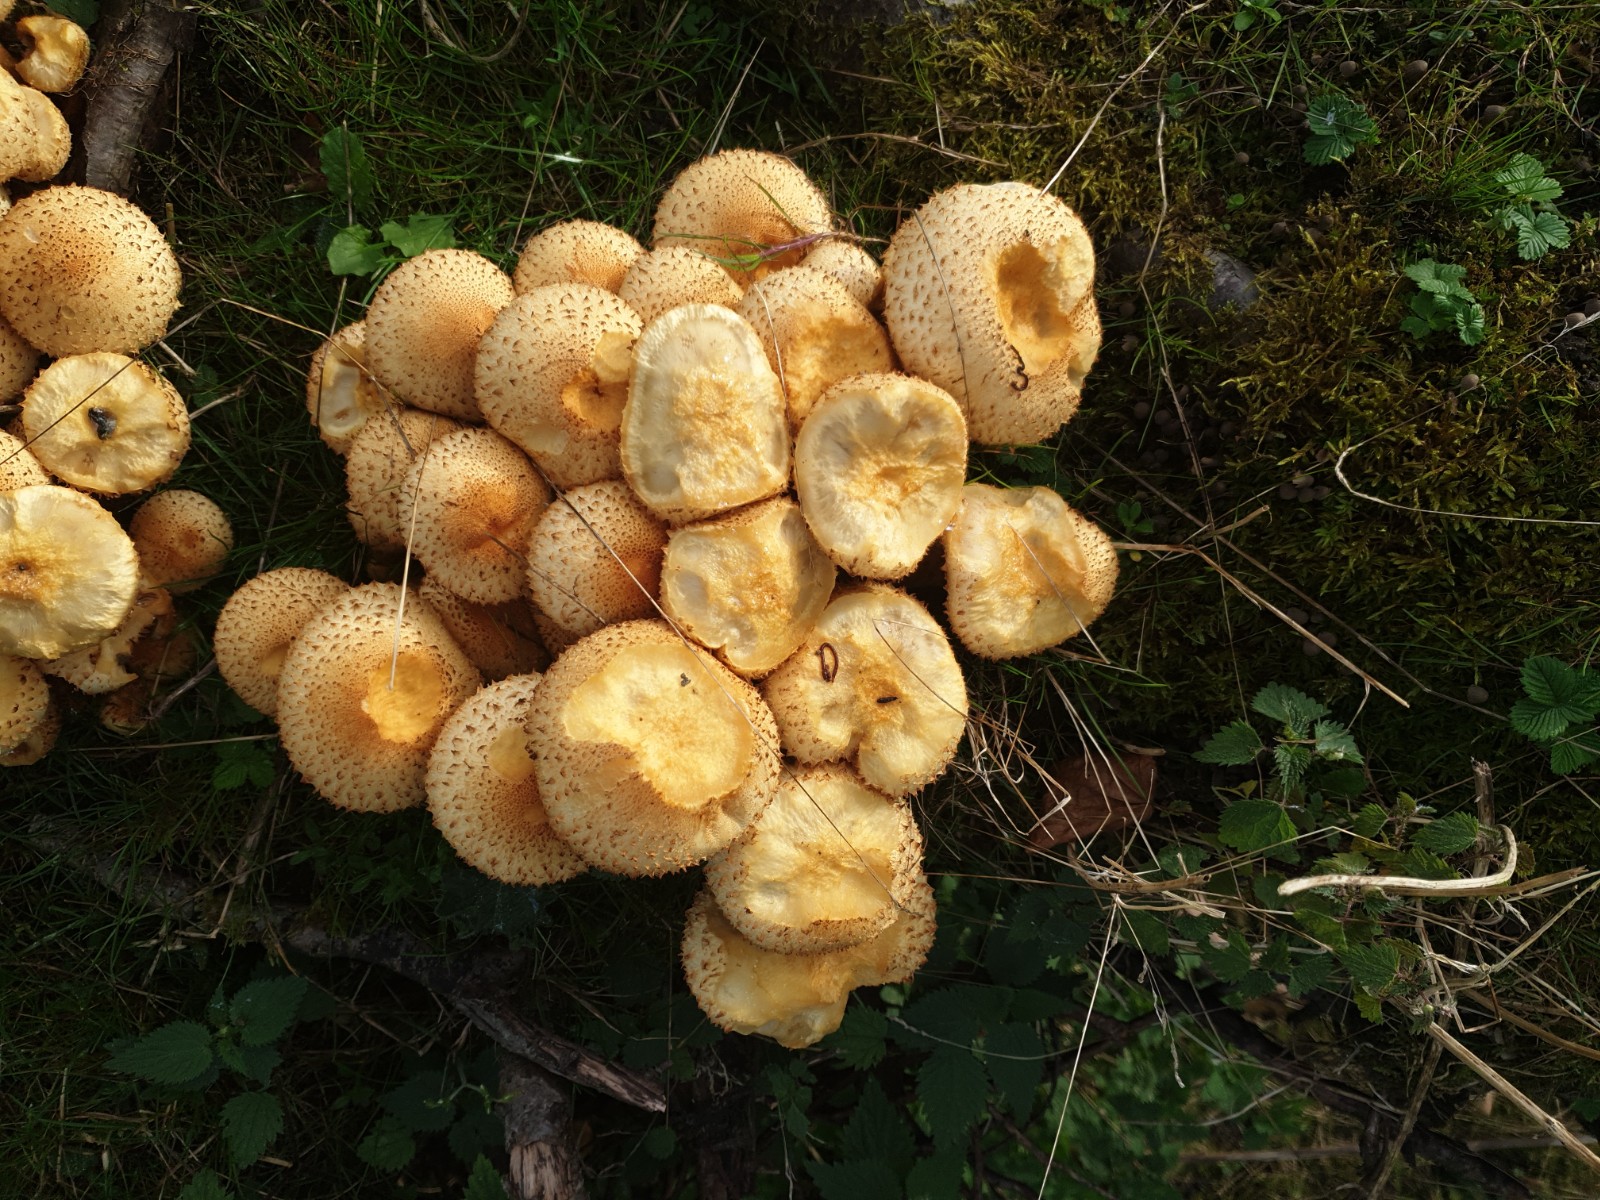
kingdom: Fungi
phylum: Basidiomycota
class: Agaricomycetes
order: Agaricales
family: Strophariaceae
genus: Pholiota
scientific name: Pholiota squarrosa
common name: krumskællet skælhat
